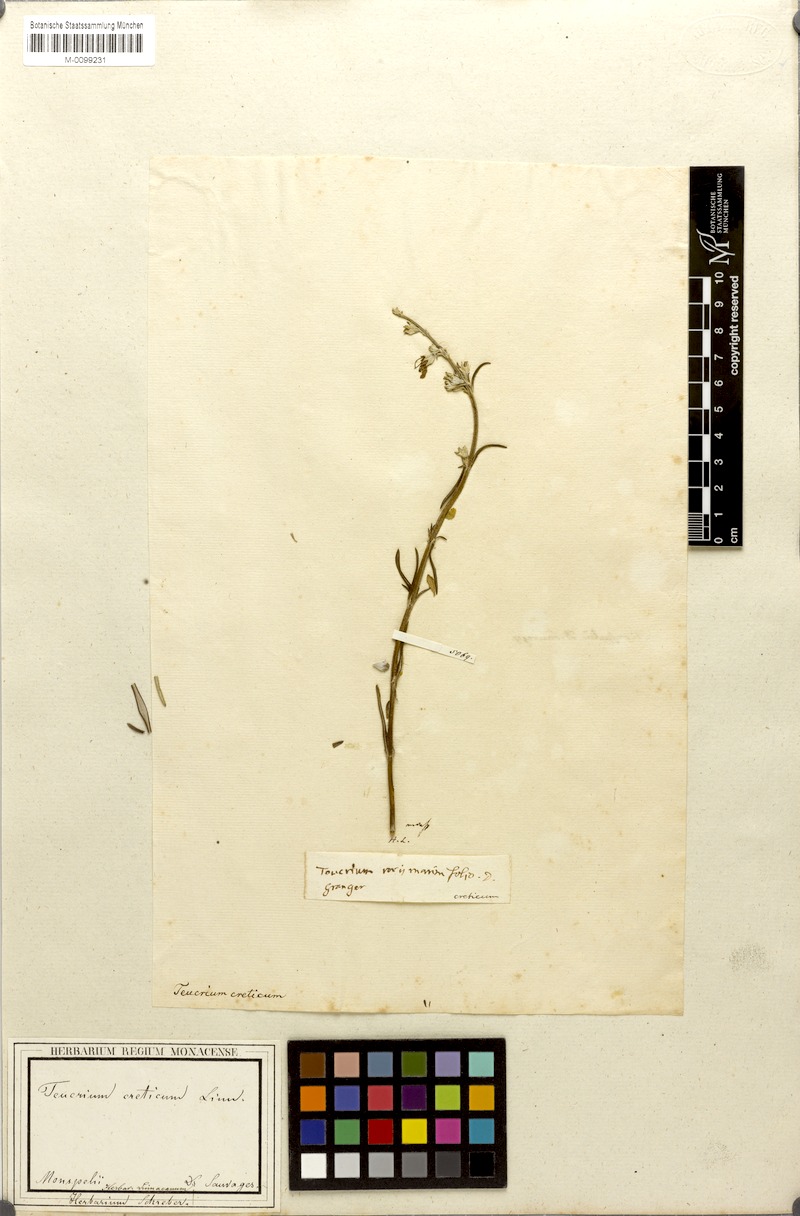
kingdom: Plantae
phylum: Tracheophyta
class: Magnoliopsida
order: Lamiales
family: Lamiaceae
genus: Teucrium
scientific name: Teucrium creticum
